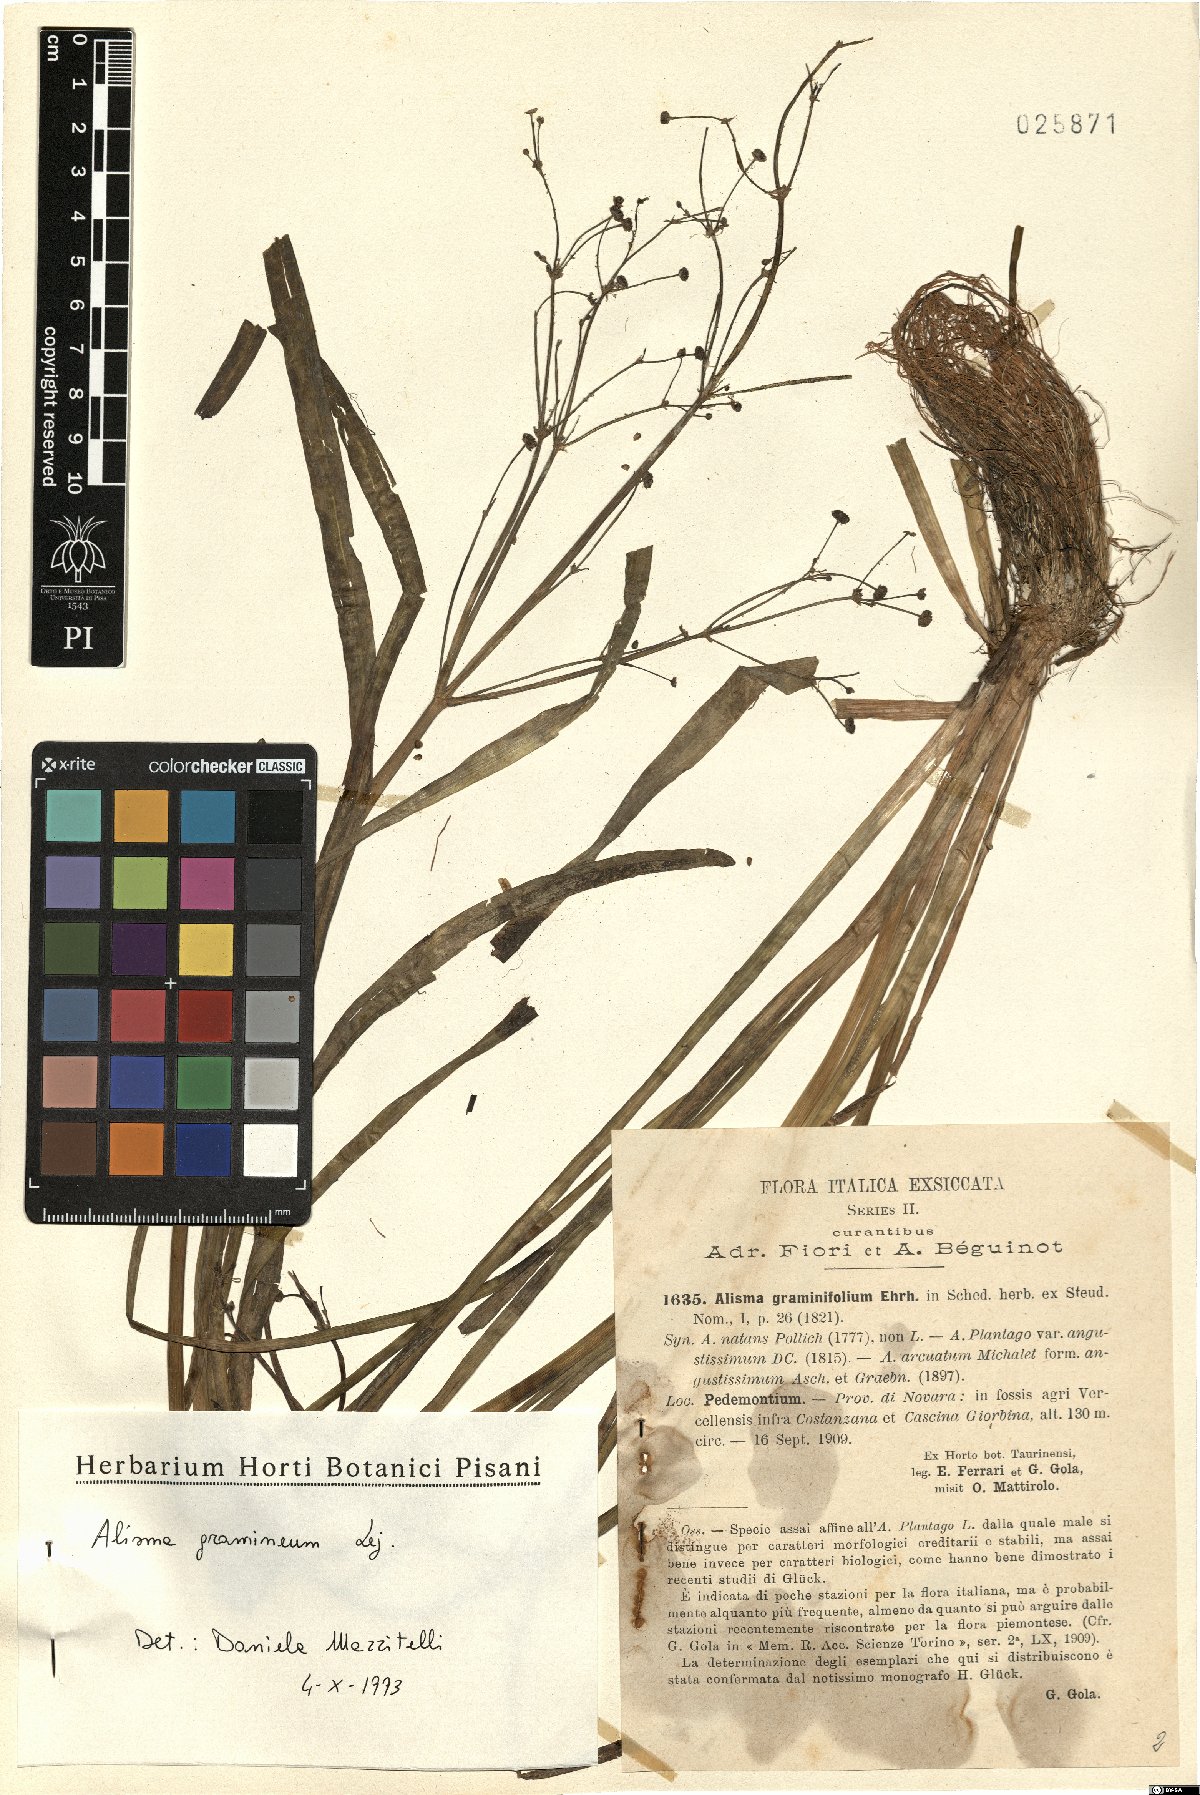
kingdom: Plantae
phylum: Tracheophyta
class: Liliopsida
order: Alismatales
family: Alismataceae
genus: Alisma
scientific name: Alisma gramineum
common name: Ribbon-leaved water-plantain
